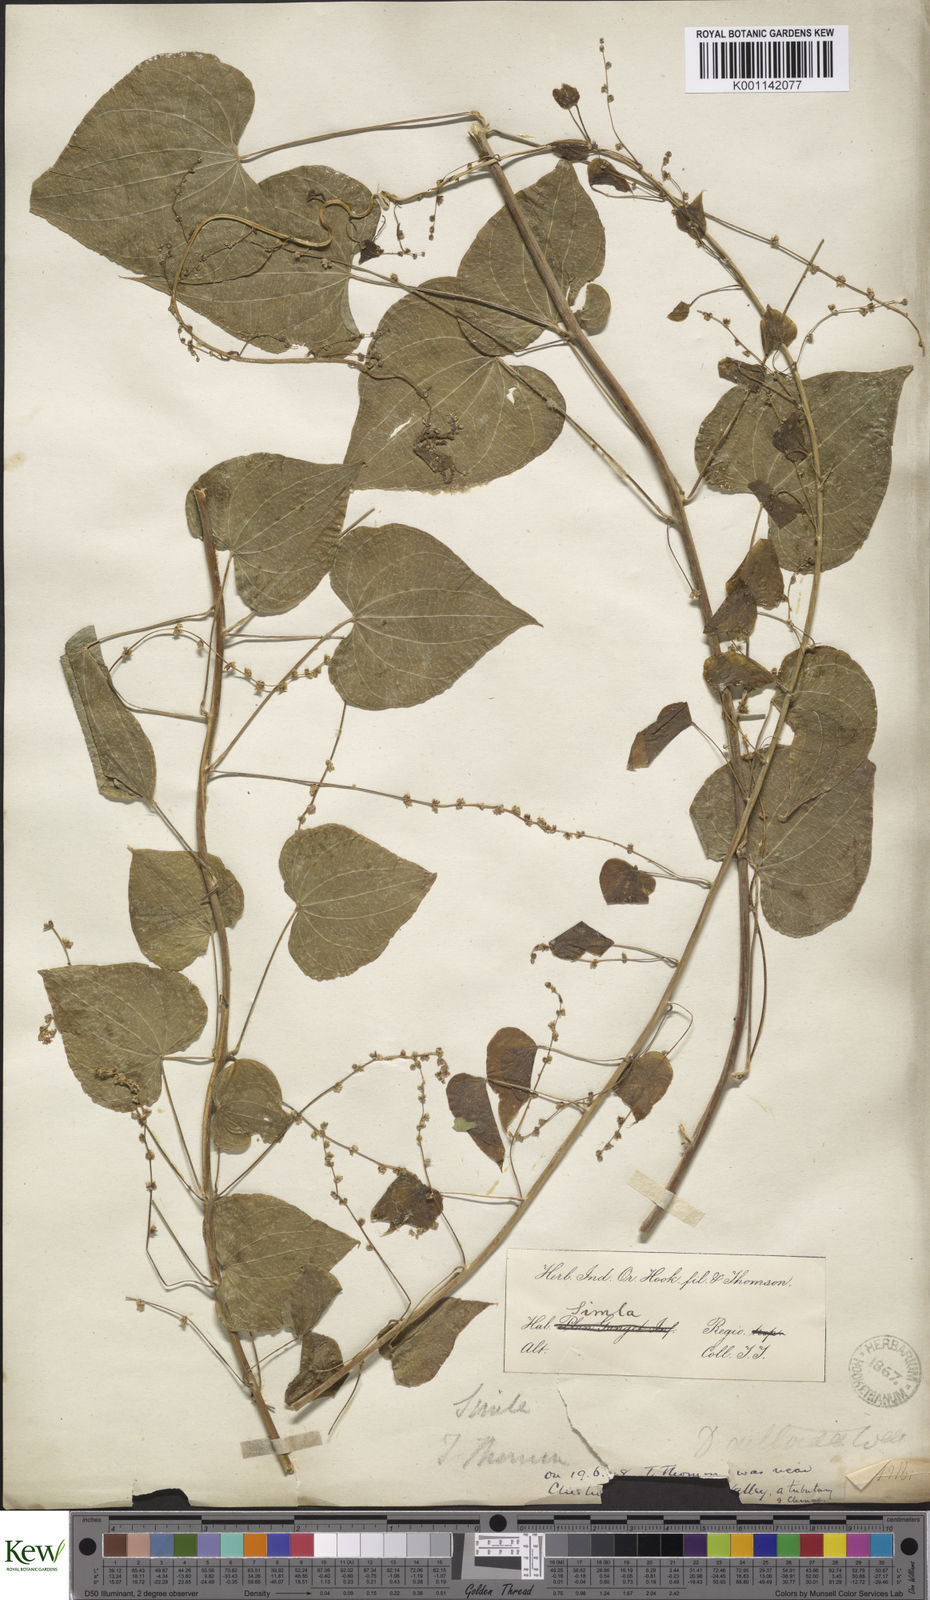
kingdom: Plantae
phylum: Tracheophyta
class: Liliopsida
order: Dioscoreales
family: Dioscoreaceae
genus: Dioscorea
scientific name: Dioscorea deltoidea
